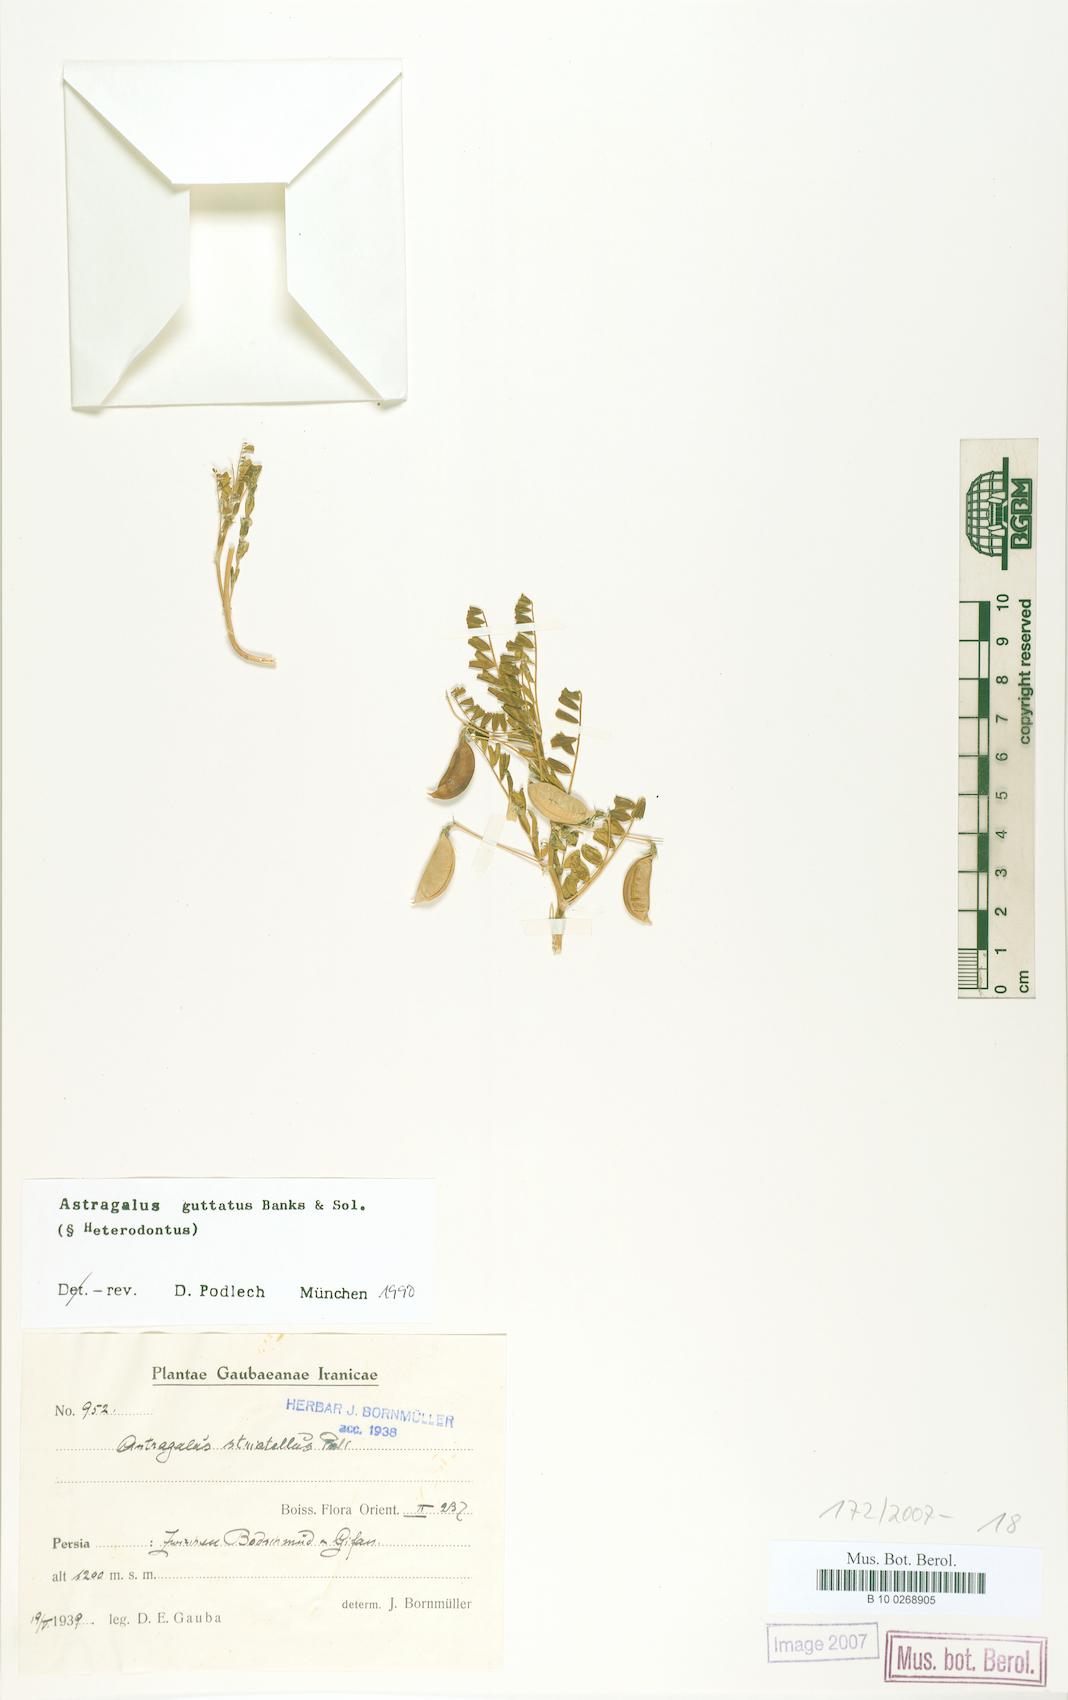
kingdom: Plantae
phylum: Tracheophyta
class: Magnoliopsida
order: Fabales
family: Fabaceae
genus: Astragalus
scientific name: Astragalus guttatus
